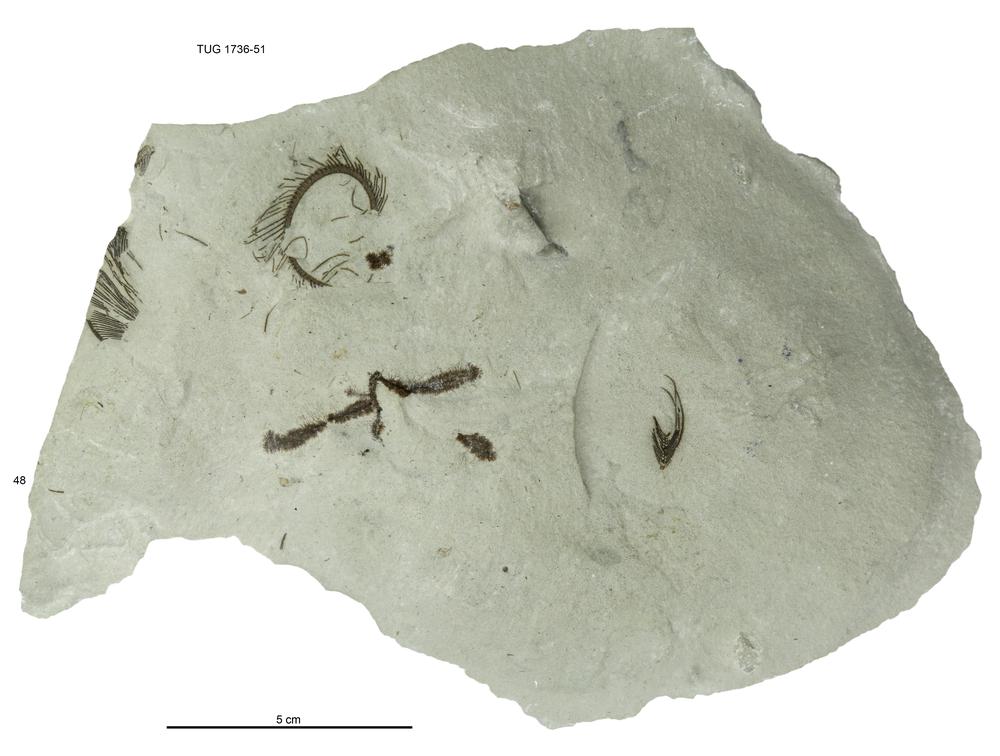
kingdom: Animalia
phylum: Echinodermata
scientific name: Echinodermata
